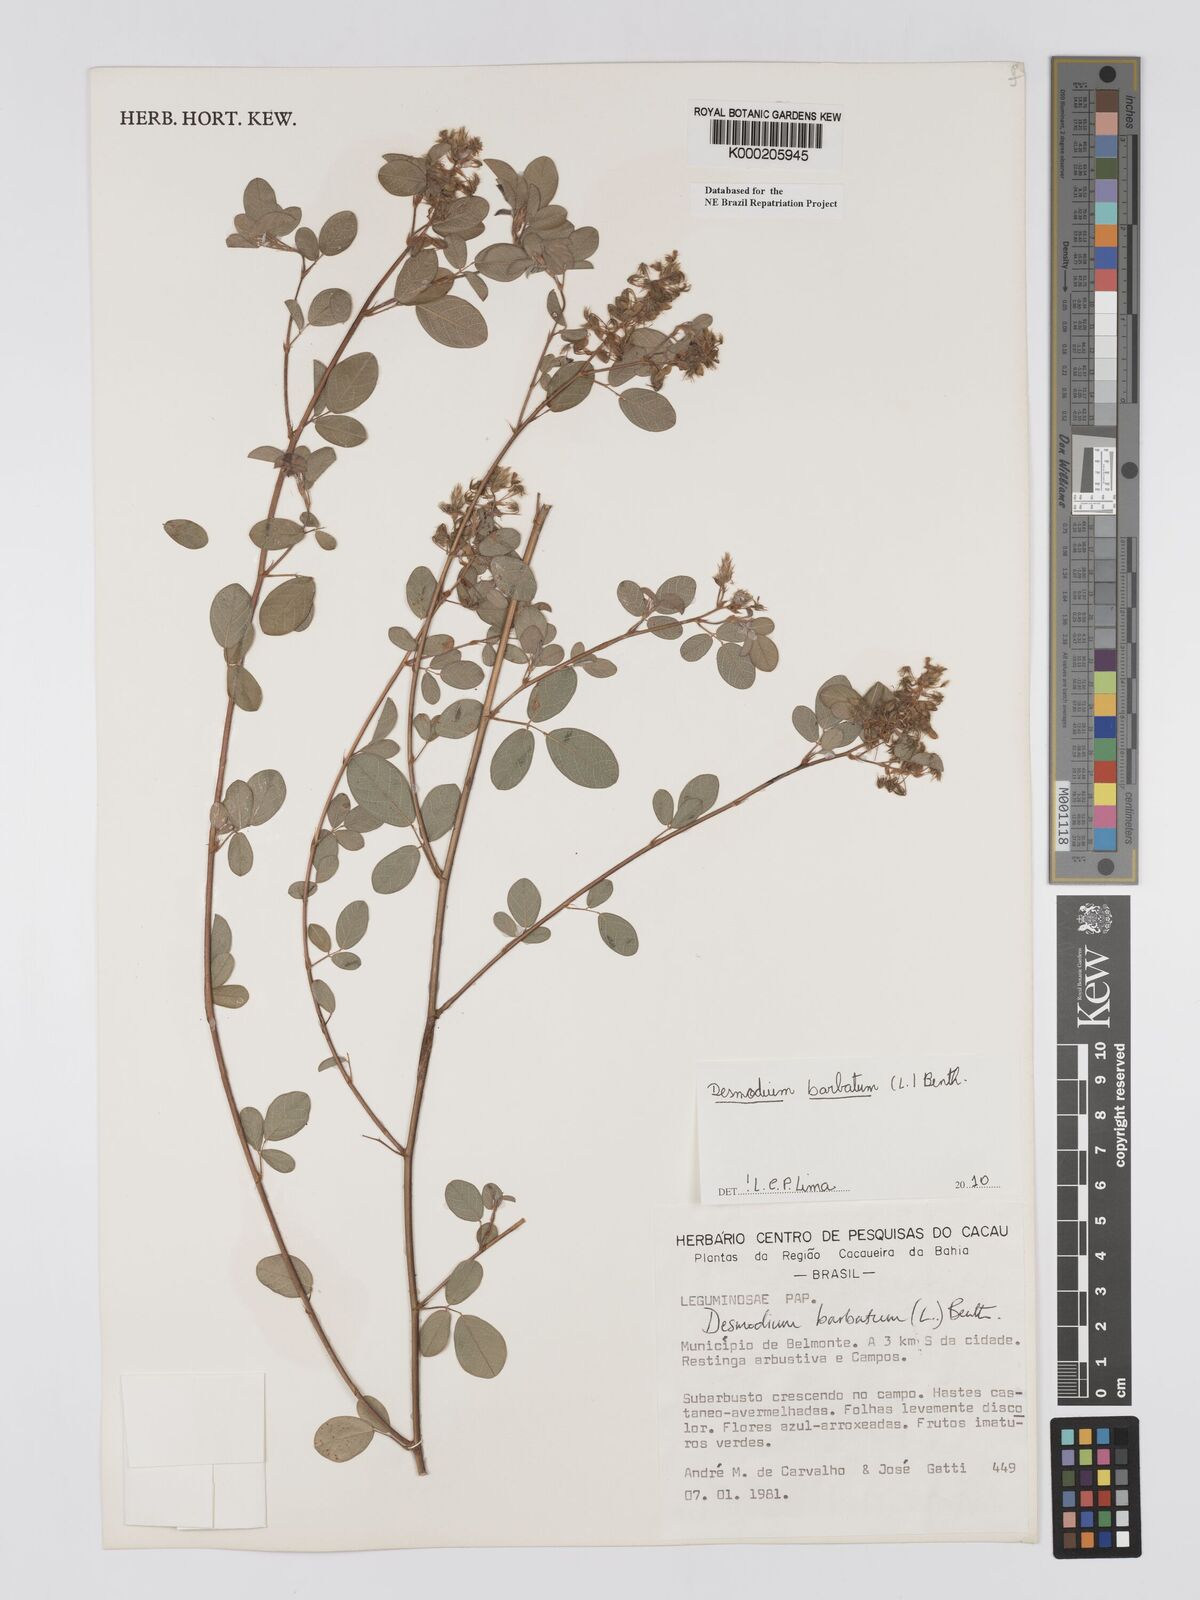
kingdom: Plantae
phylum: Tracheophyta
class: Magnoliopsida
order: Fabales
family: Fabaceae
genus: Grona
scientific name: Grona barbata
